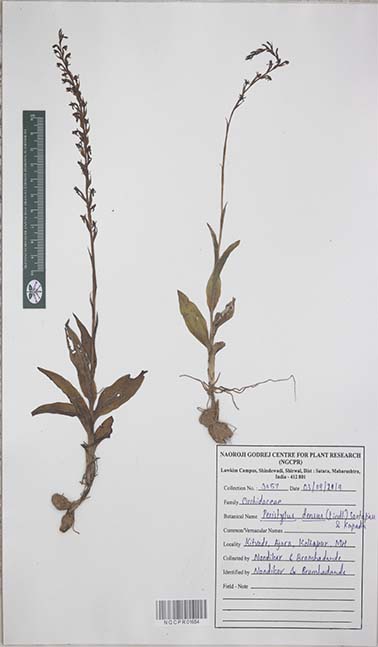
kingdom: Plantae
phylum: Tracheophyta
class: Liliopsida
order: Asparagales
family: Orchidaceae
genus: Peristylus
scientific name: Peristylus densus
